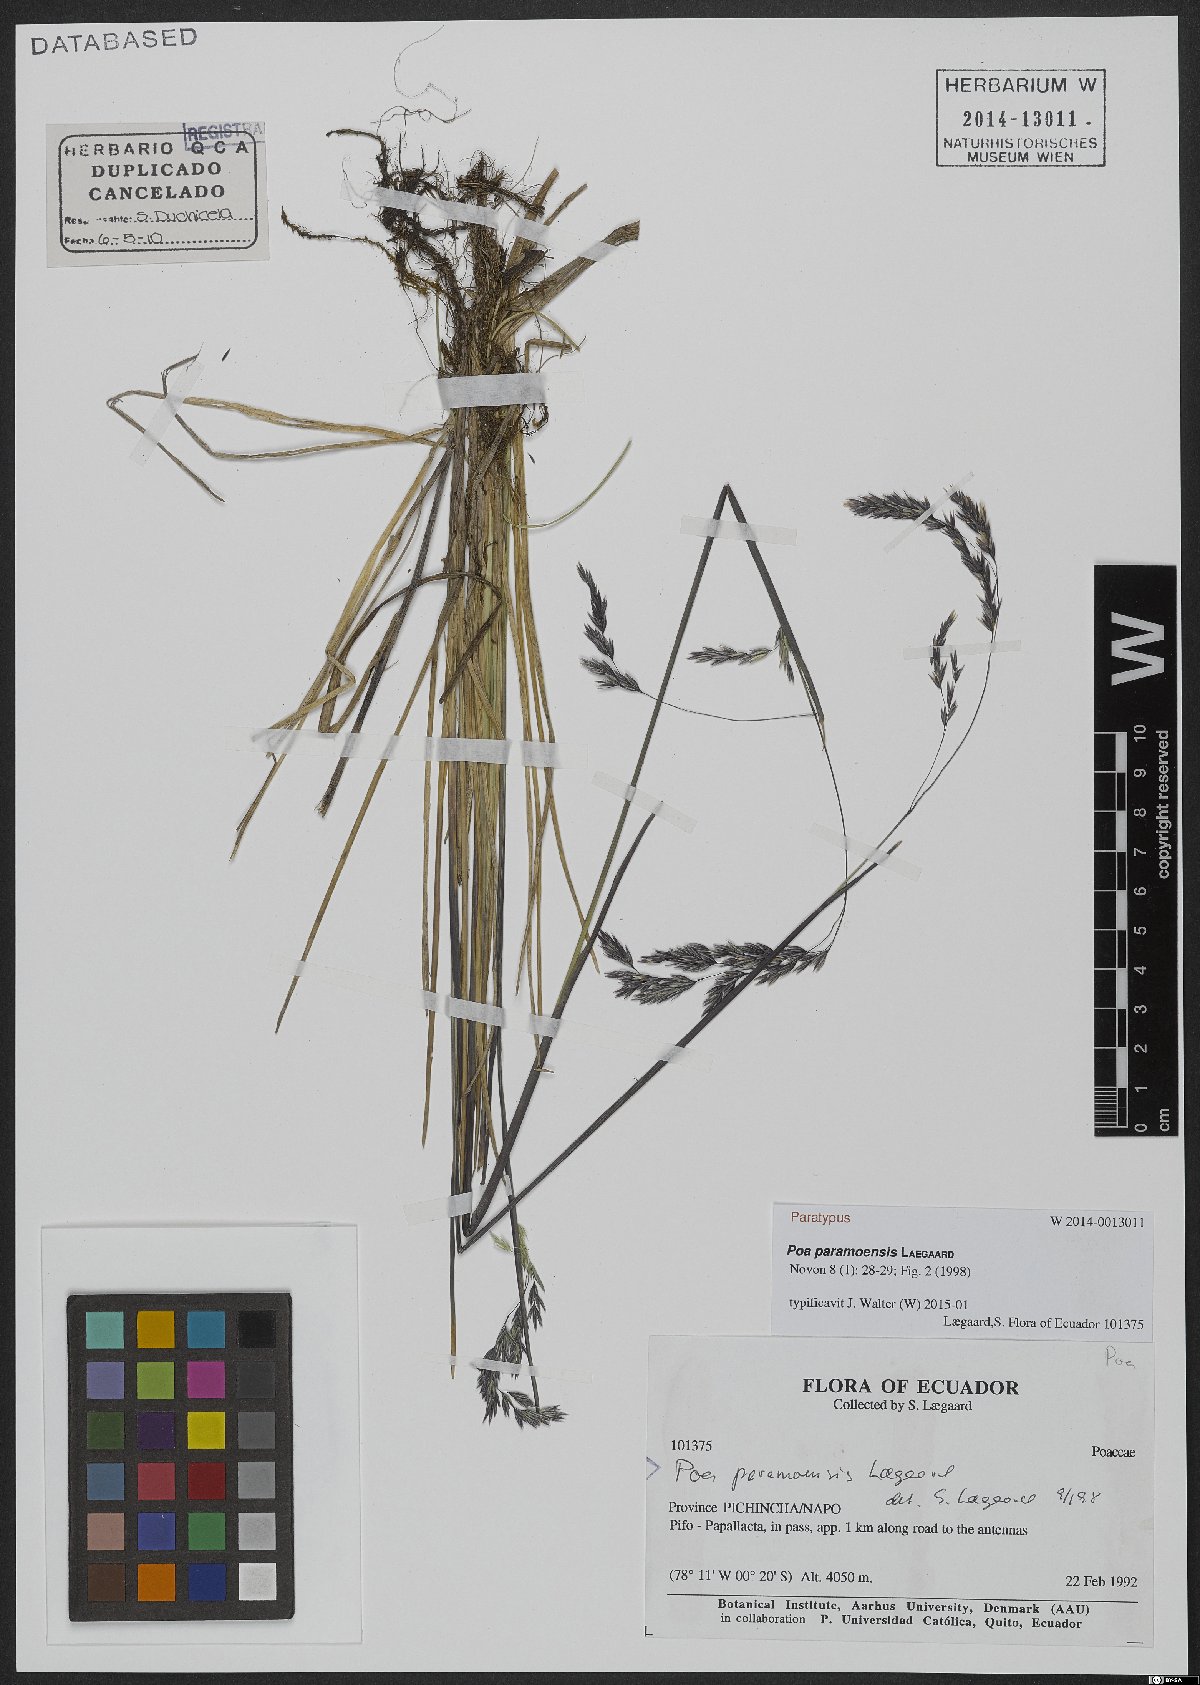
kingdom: Plantae
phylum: Tracheophyta
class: Liliopsida
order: Poales
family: Poaceae
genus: Poa
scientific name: Poa huancavelicae
